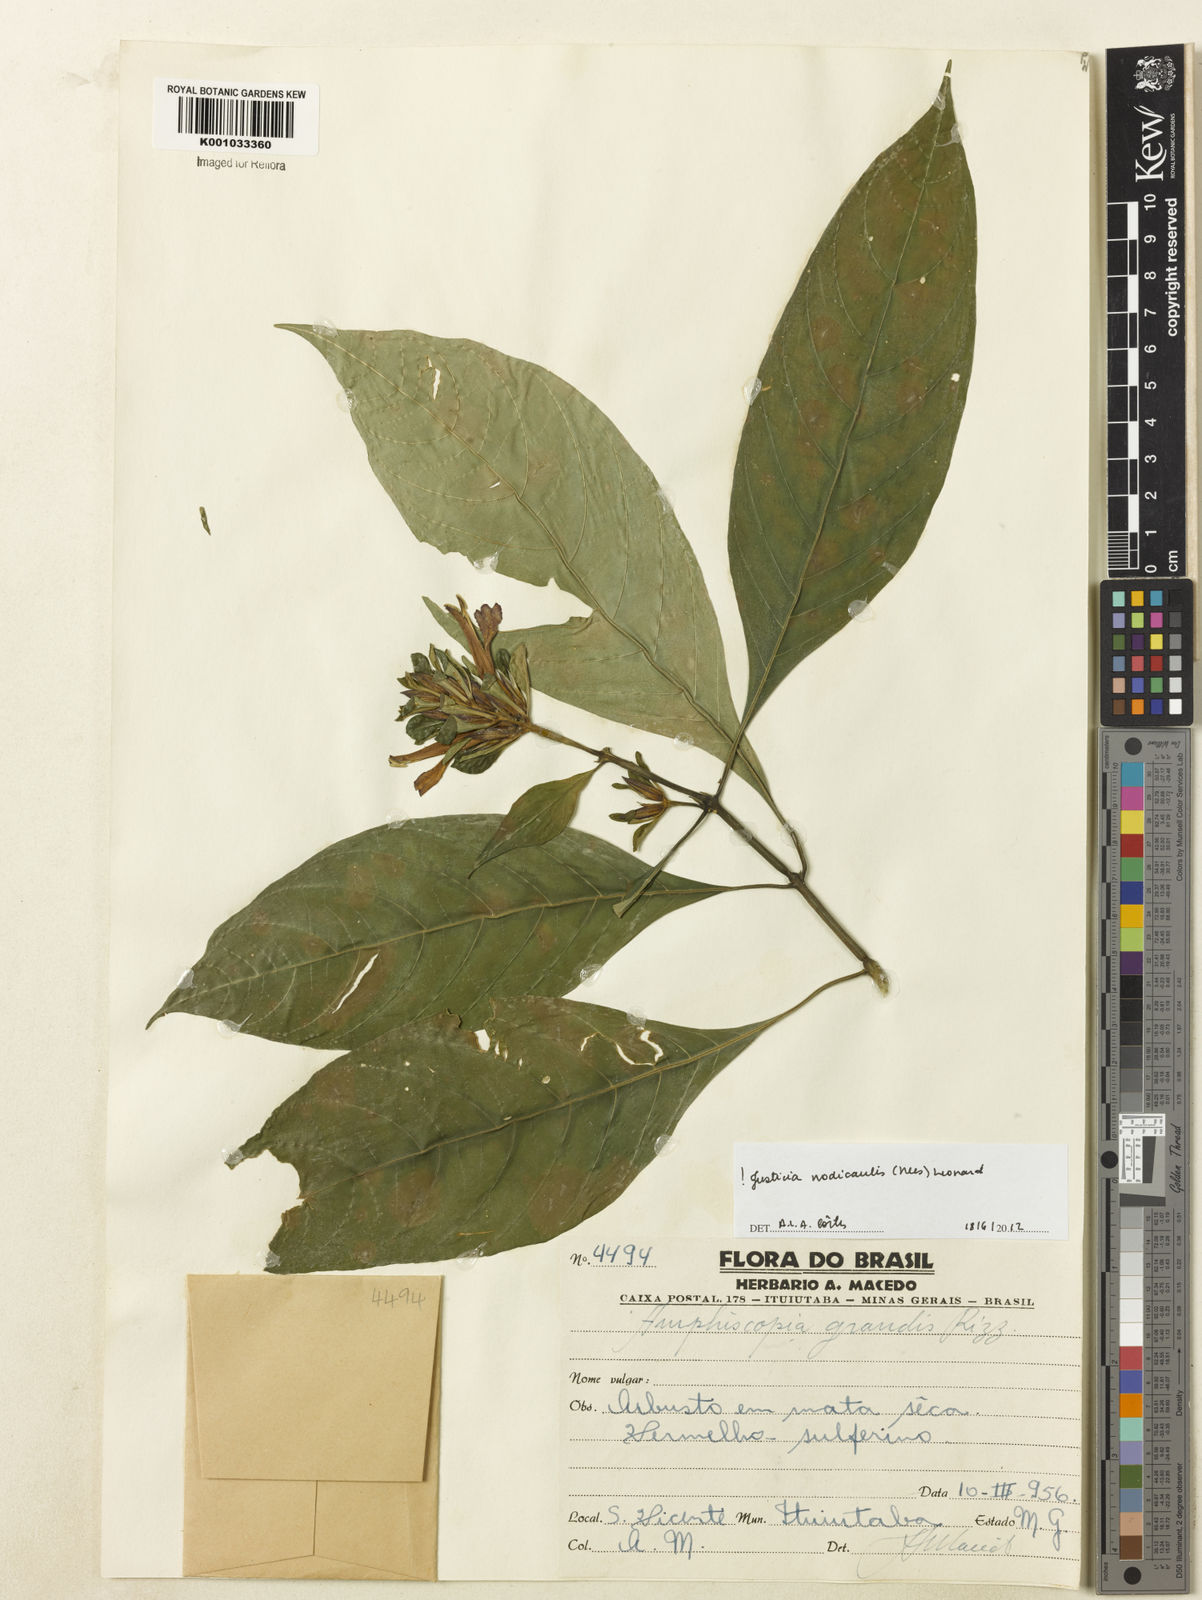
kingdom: Plantae
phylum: Tracheophyta
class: Magnoliopsida
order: Lamiales
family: Acanthaceae
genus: Justicia
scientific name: Justicia nodicaulis
